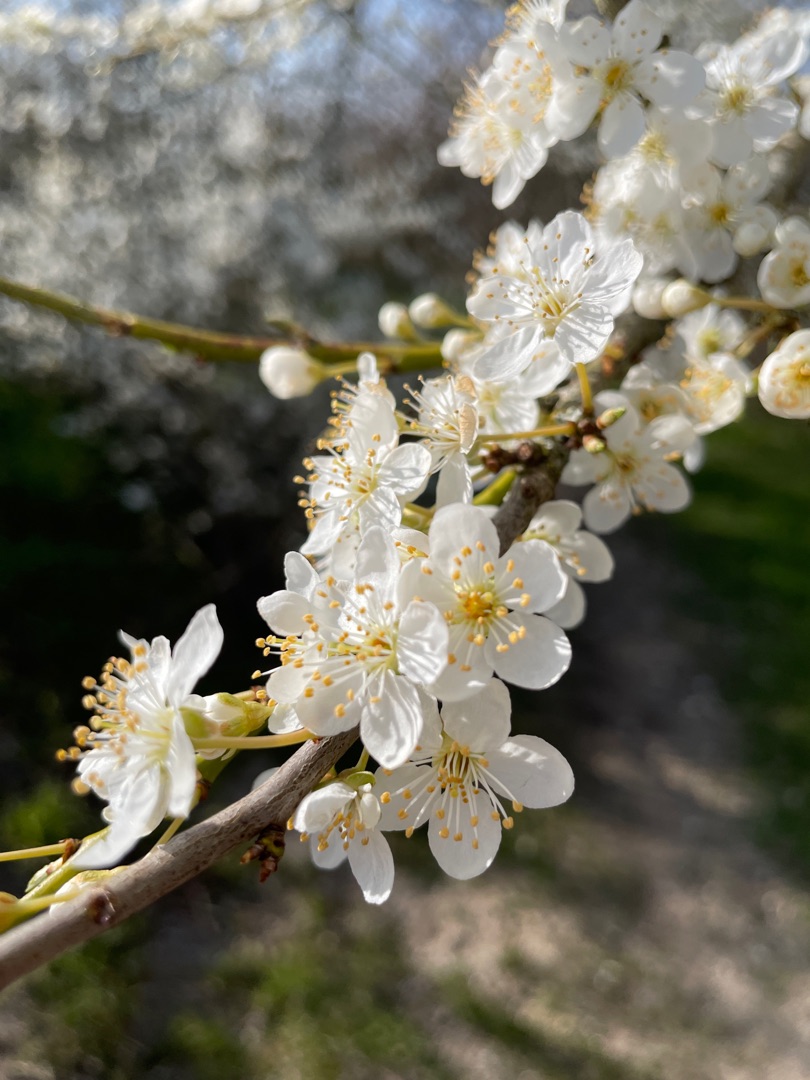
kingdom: Plantae
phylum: Tracheophyta
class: Magnoliopsida
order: Rosales
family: Rosaceae
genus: Prunus
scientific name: Prunus cerasifera
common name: Mirabel
